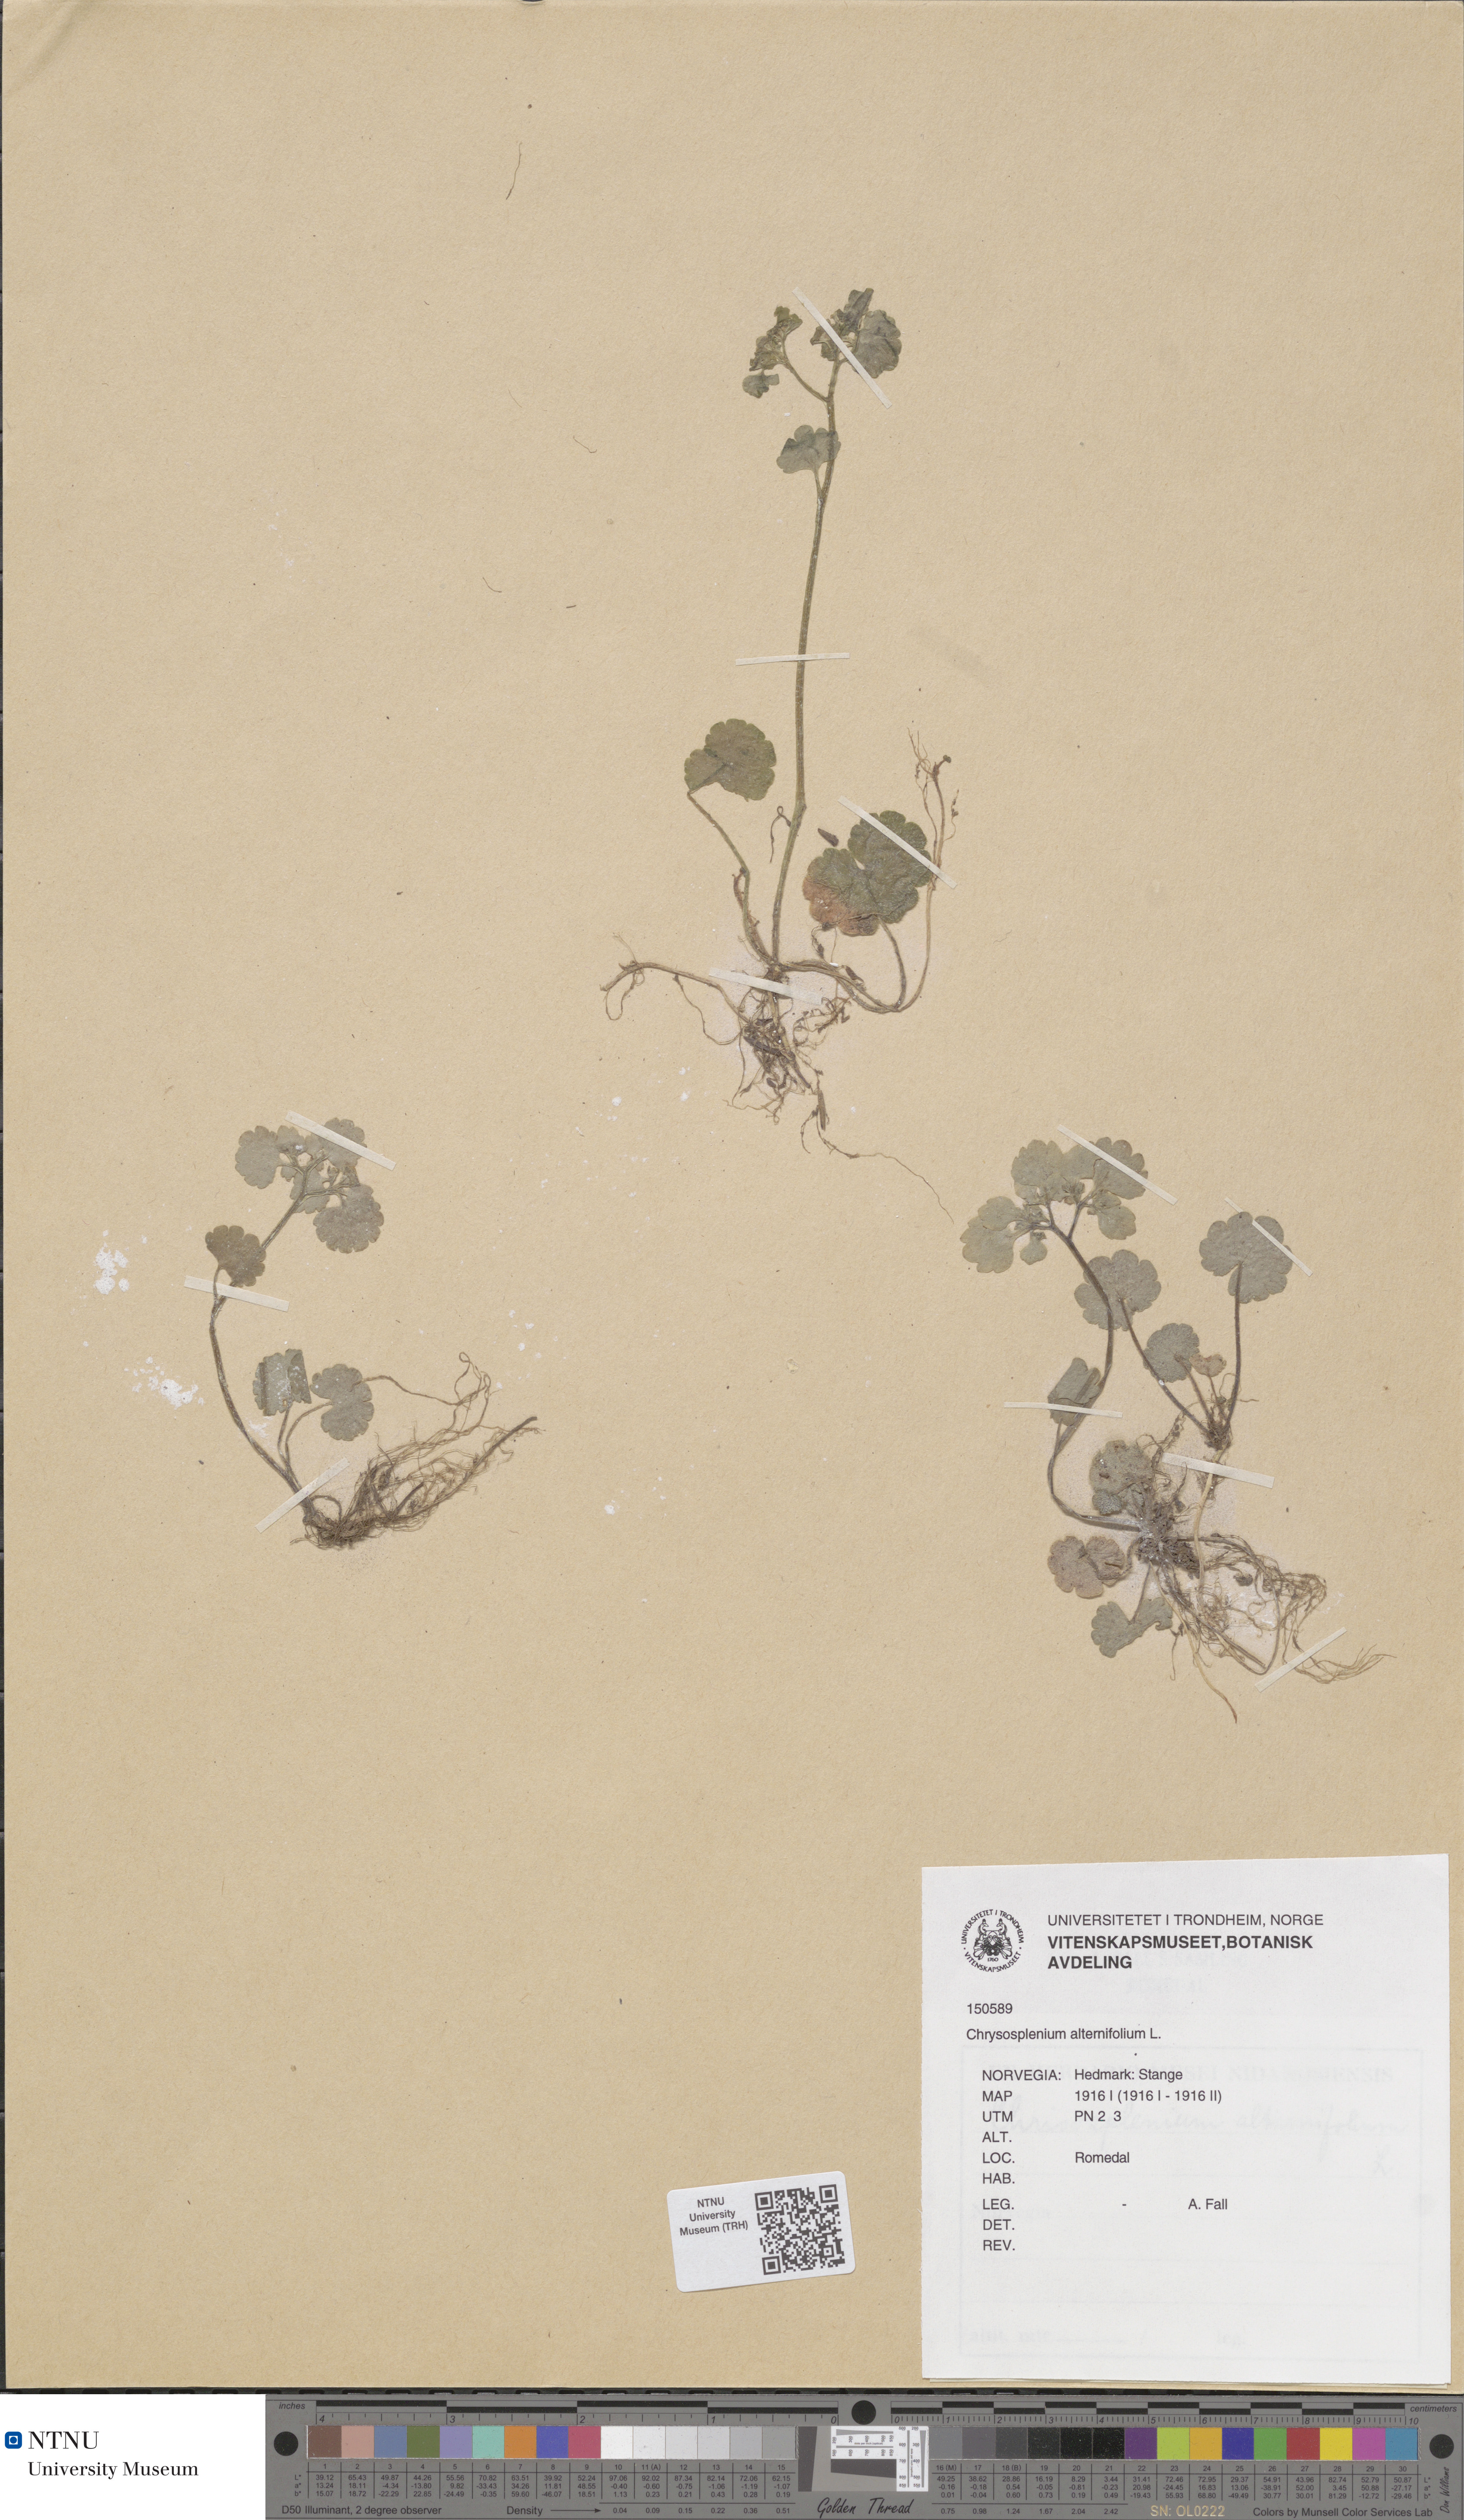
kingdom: Plantae
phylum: Tracheophyta
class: Magnoliopsida
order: Saxifragales
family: Saxifragaceae
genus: Chrysosplenium
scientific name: Chrysosplenium alternifolium
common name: Alternate-leaved golden-saxifrage
